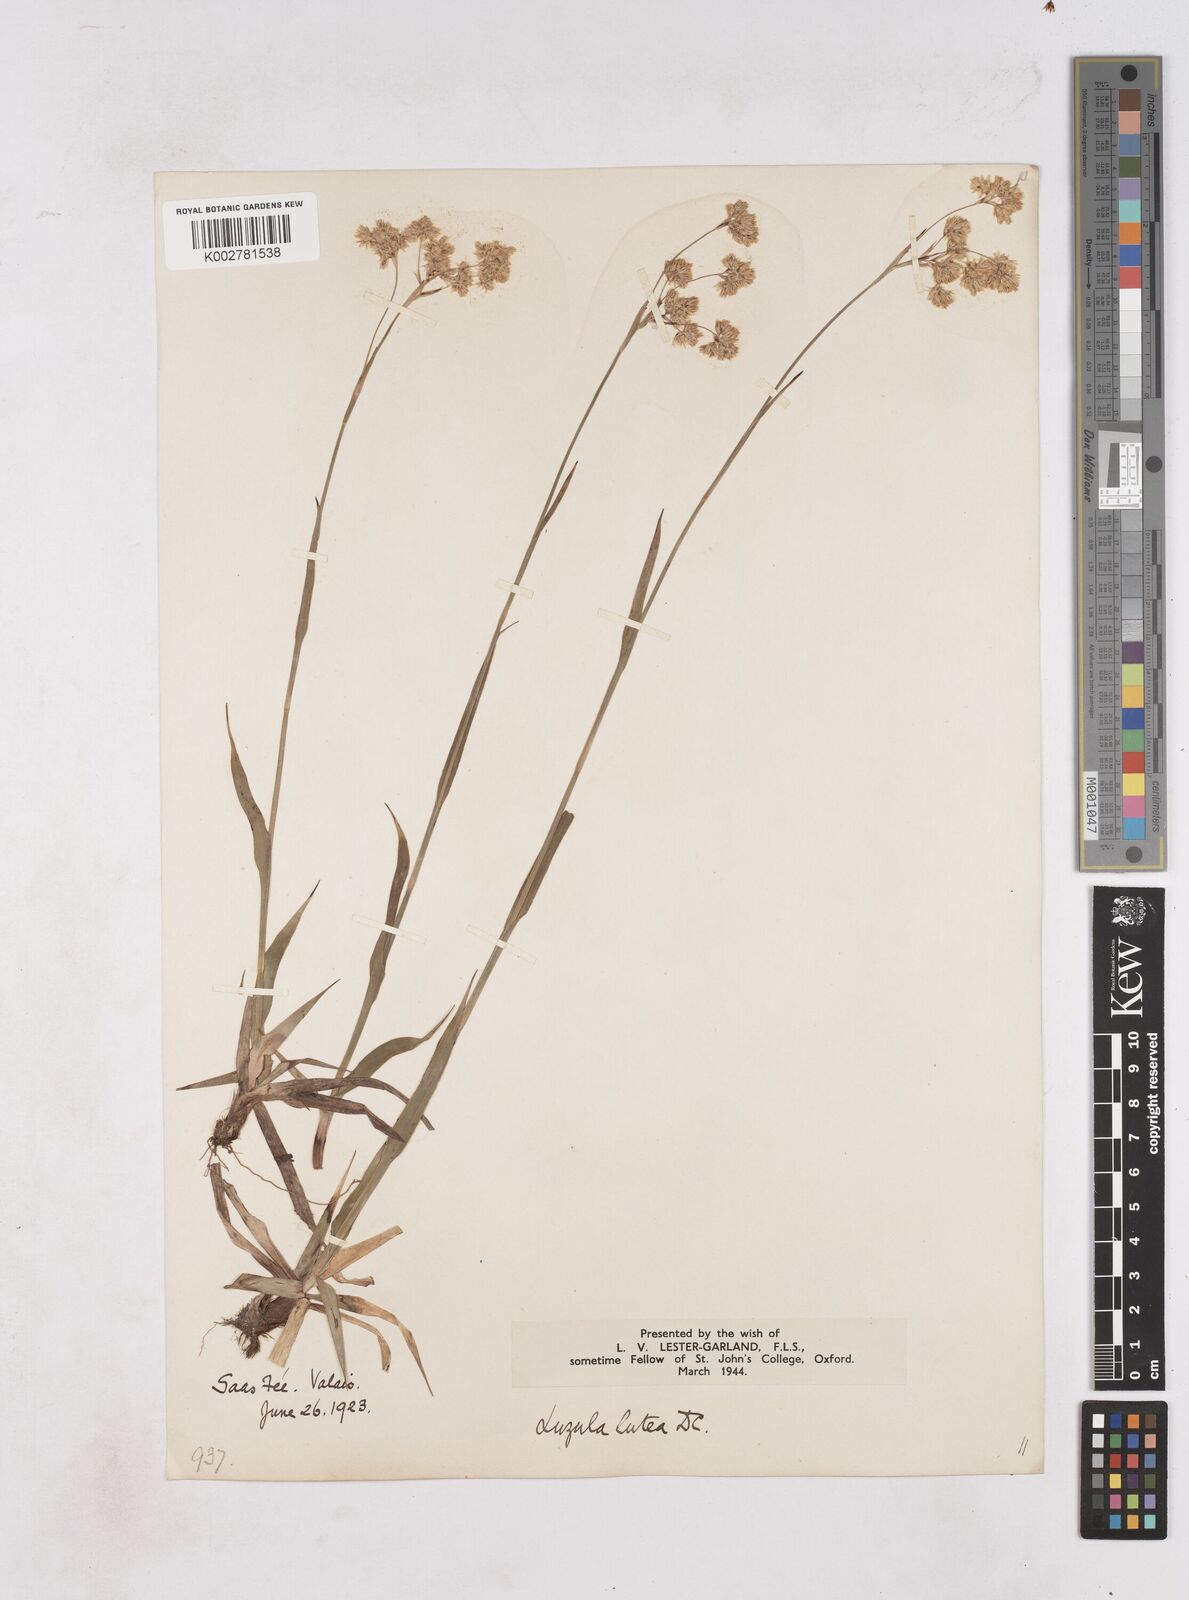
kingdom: Plantae
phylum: Tracheophyta
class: Liliopsida
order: Poales
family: Juncaceae
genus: Luzula
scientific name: Luzula lutea
